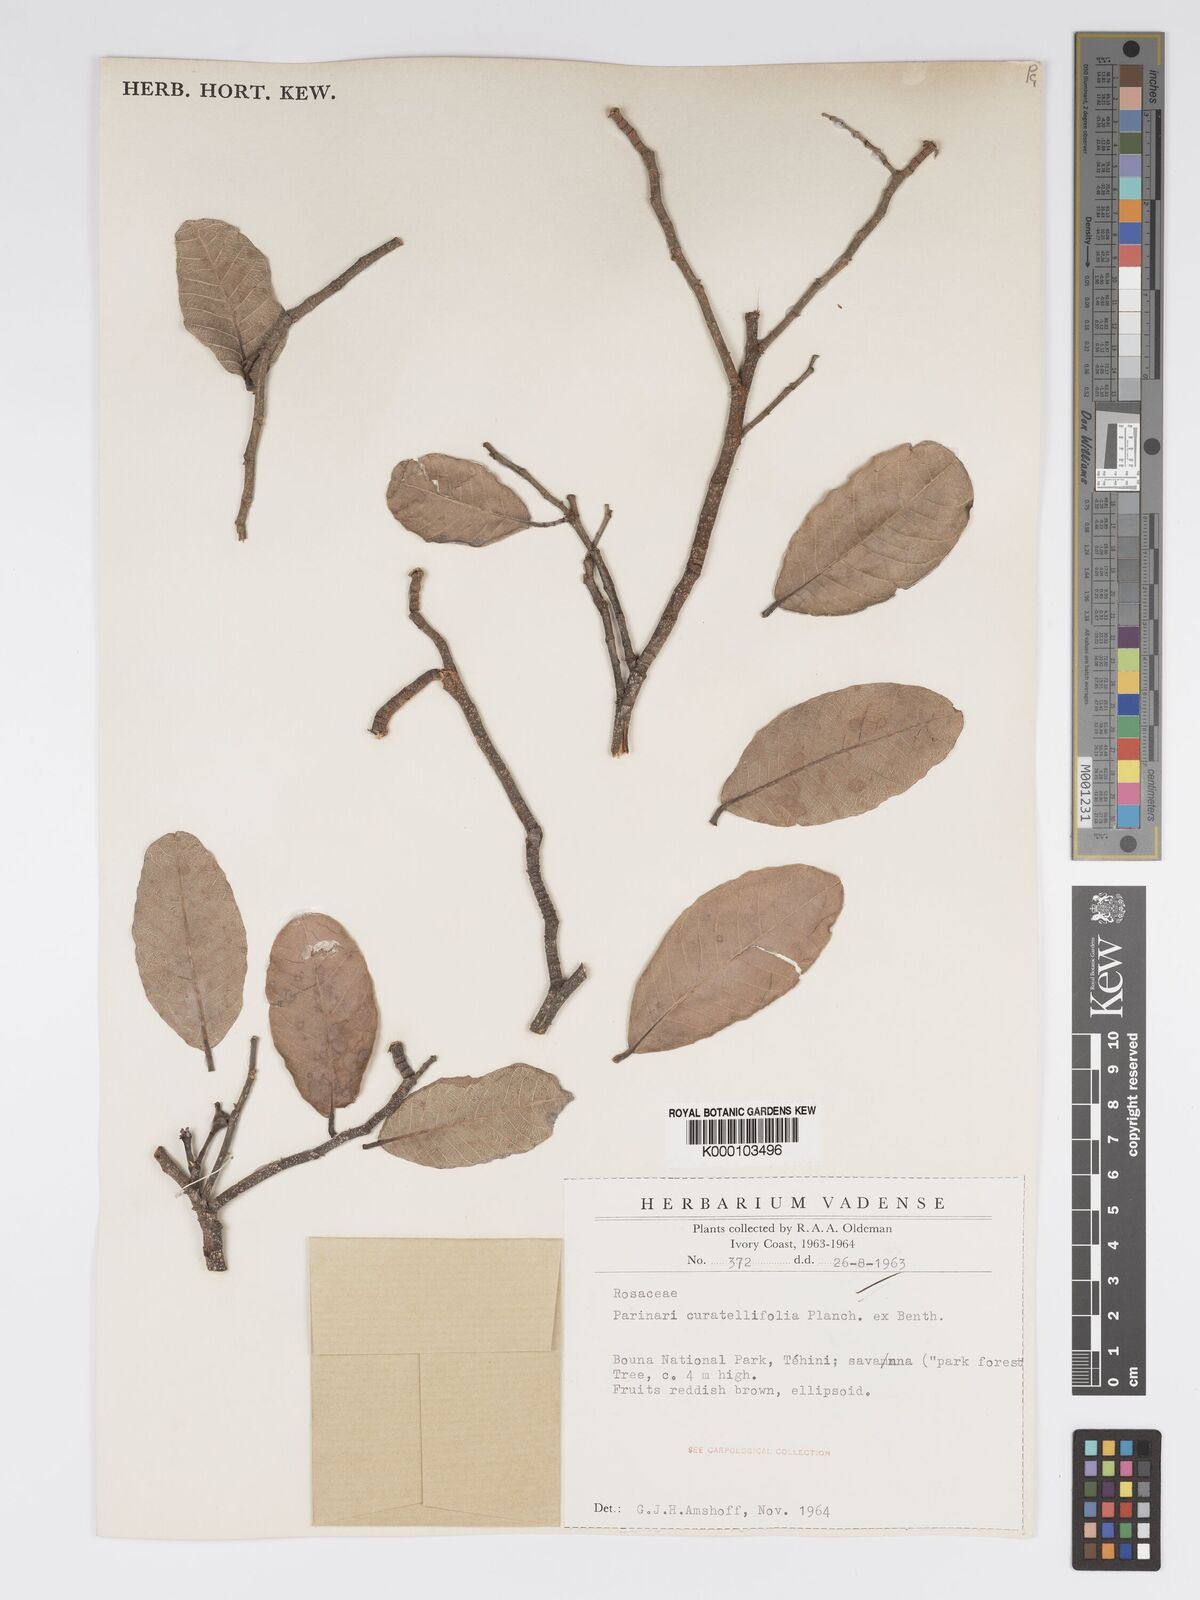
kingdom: Plantae
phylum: Tracheophyta
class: Magnoliopsida
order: Malpighiales
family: Chrysobalanaceae
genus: Parinari
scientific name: Parinari curatellifolia
